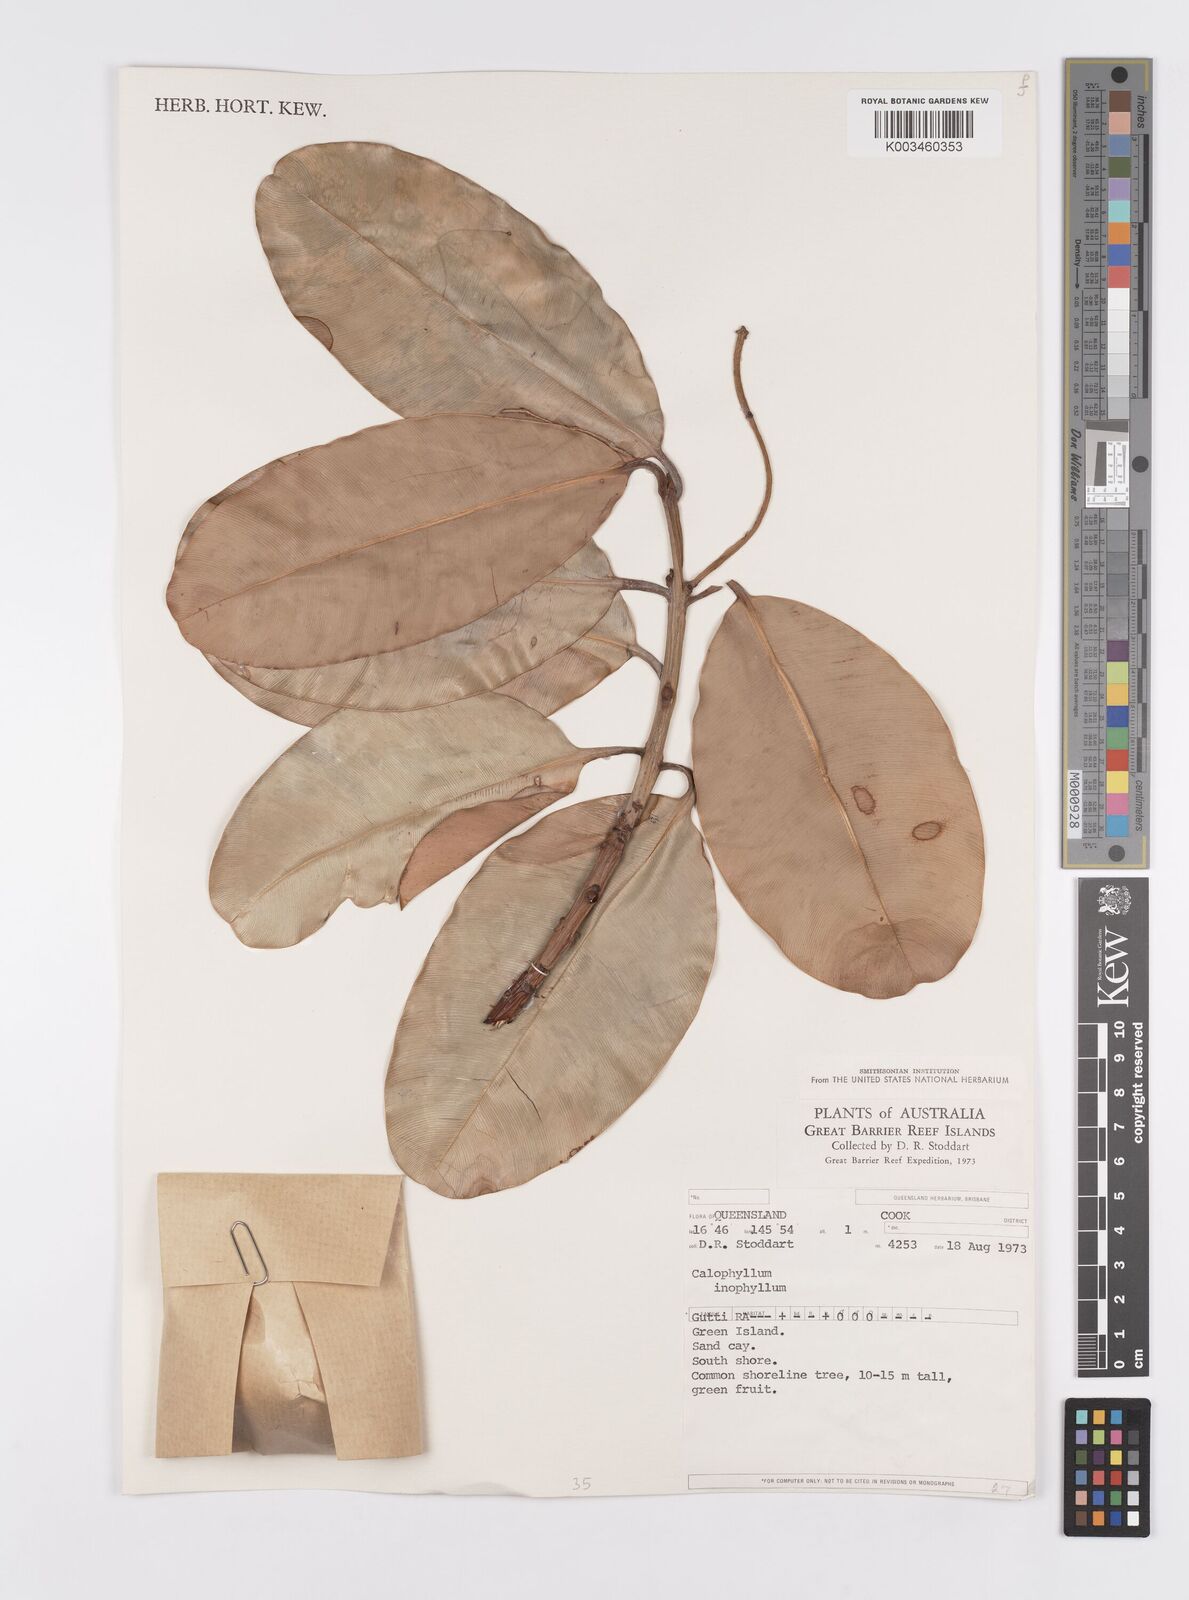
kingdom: Plantae
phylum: Tracheophyta
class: Magnoliopsida
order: Malpighiales
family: Calophyllaceae
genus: Calophyllum
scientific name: Calophyllum inophyllum
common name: Alexandrian laurel
